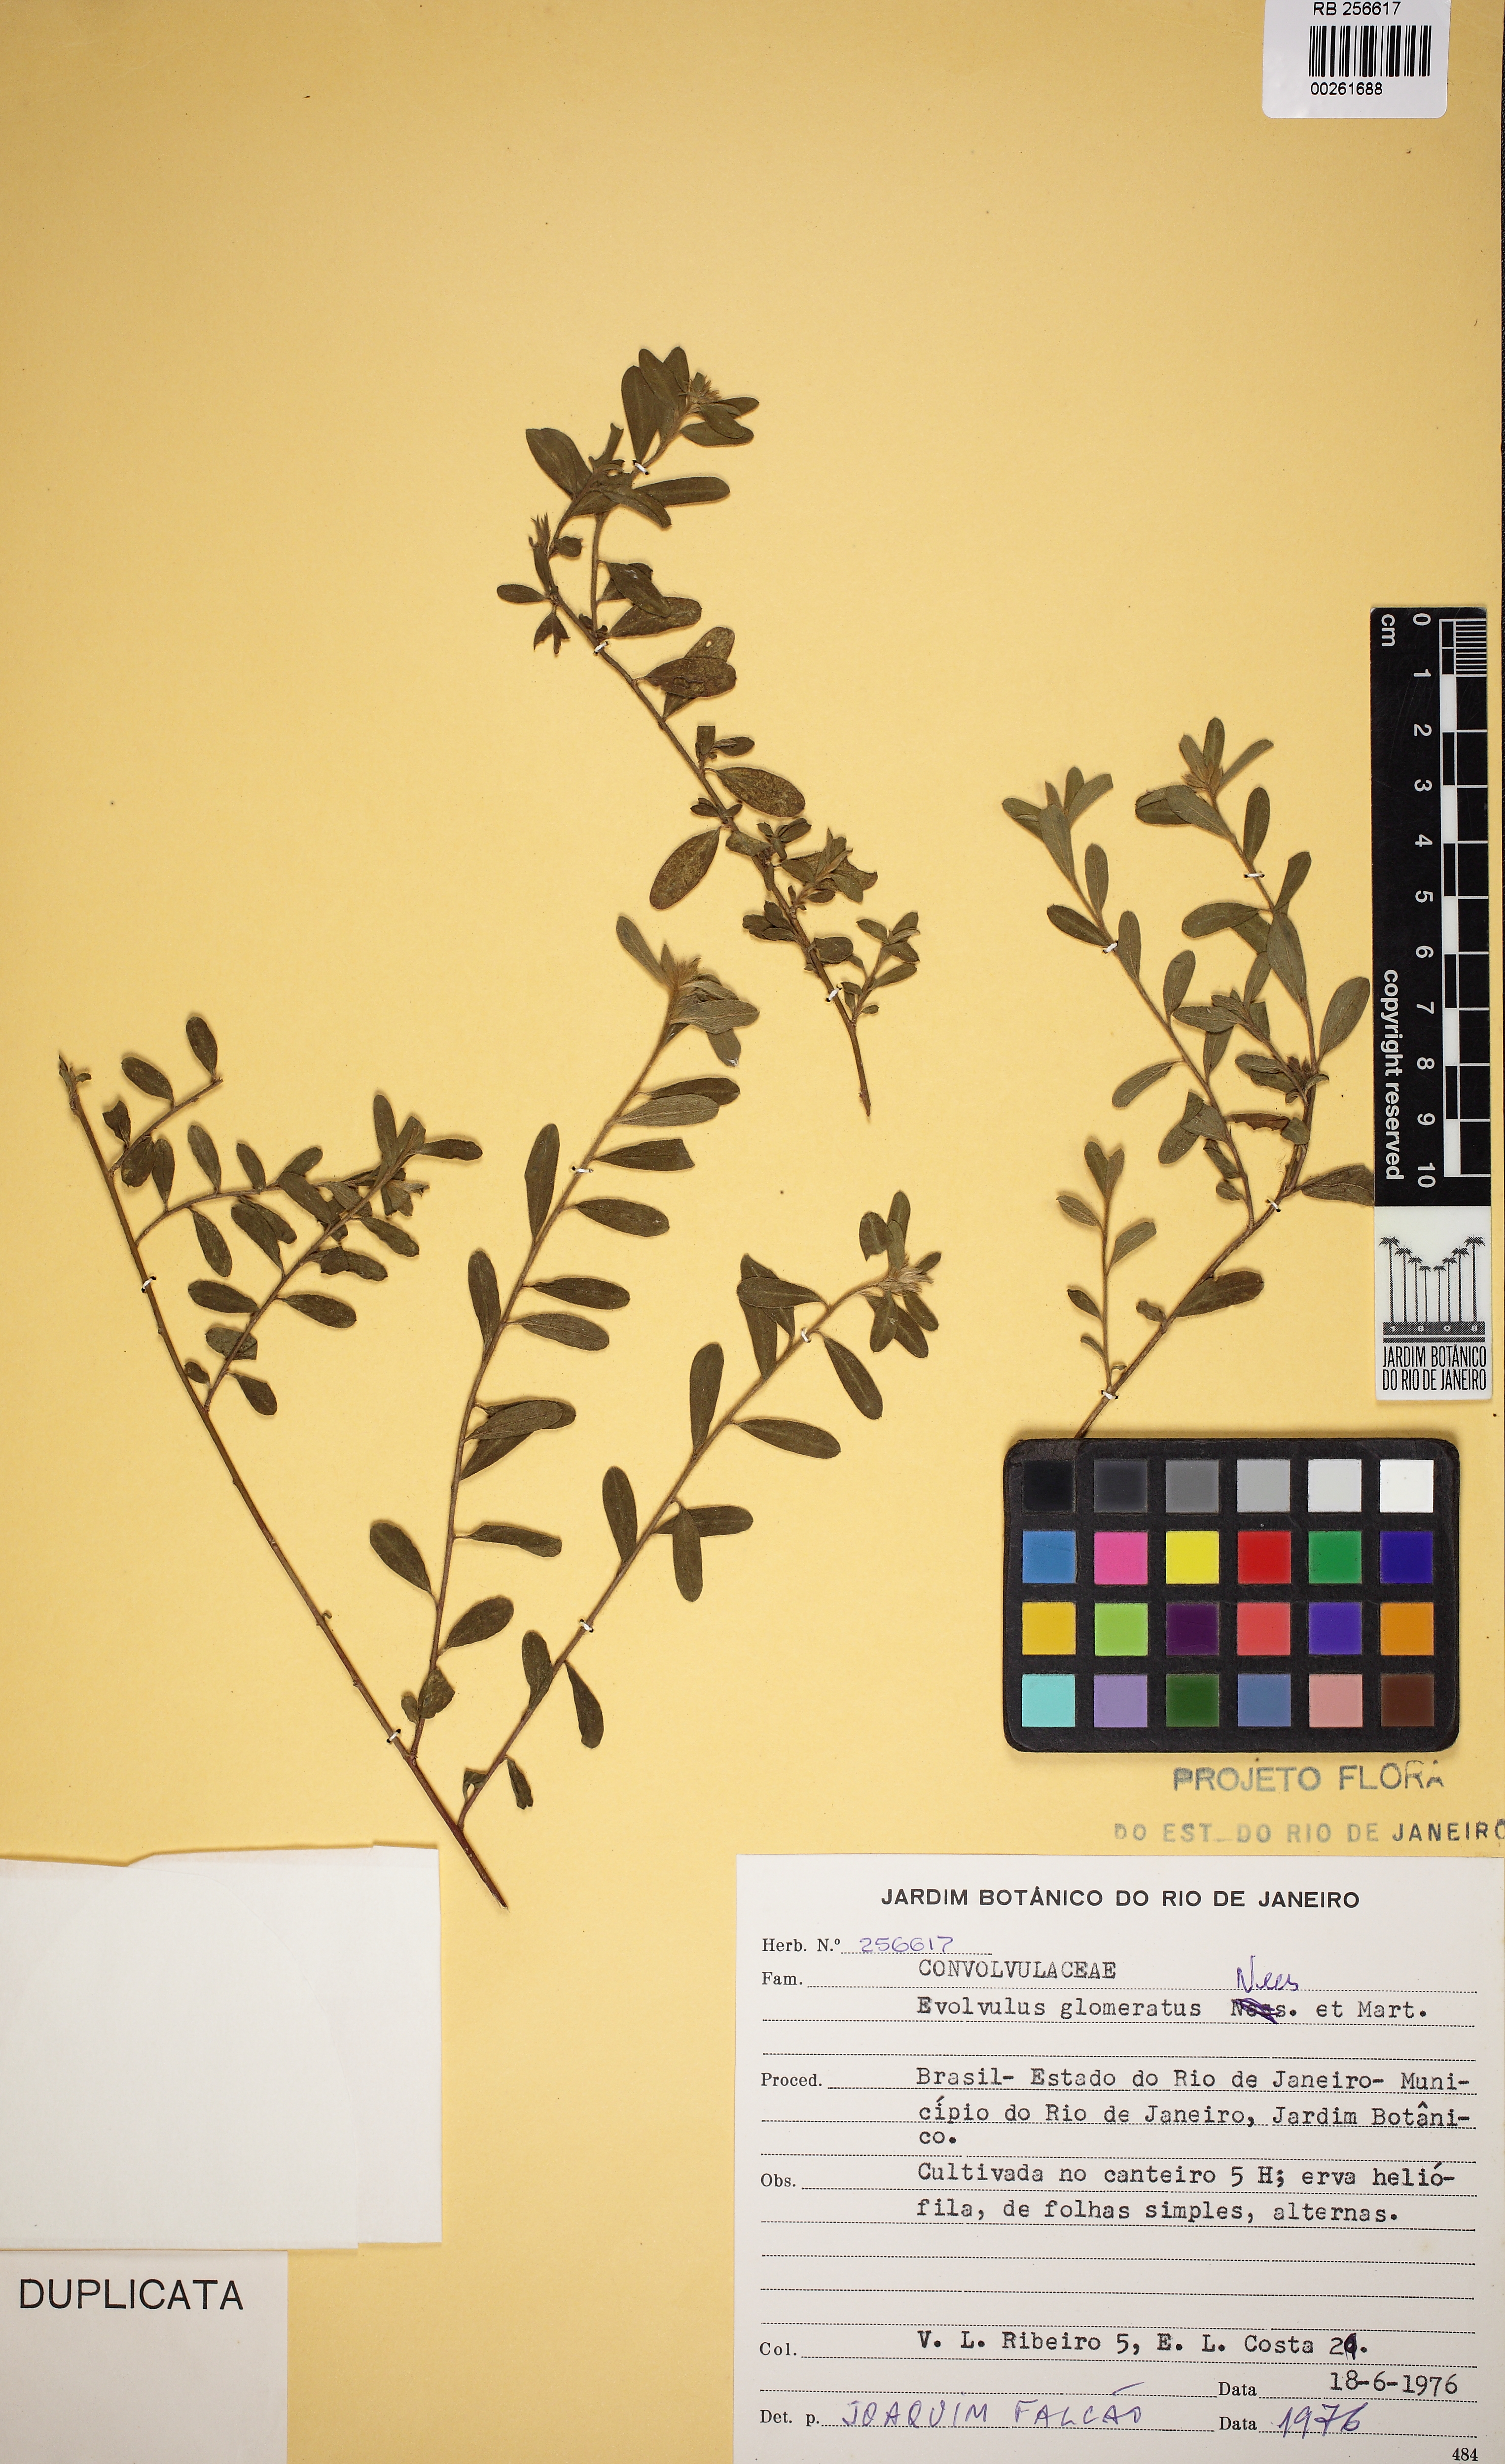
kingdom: Plantae
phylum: Tracheophyta
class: Magnoliopsida
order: Solanales
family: Convolvulaceae
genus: Evolvulus
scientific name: Evolvulus glomeratus
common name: Brazilian dwarf morning-glory
